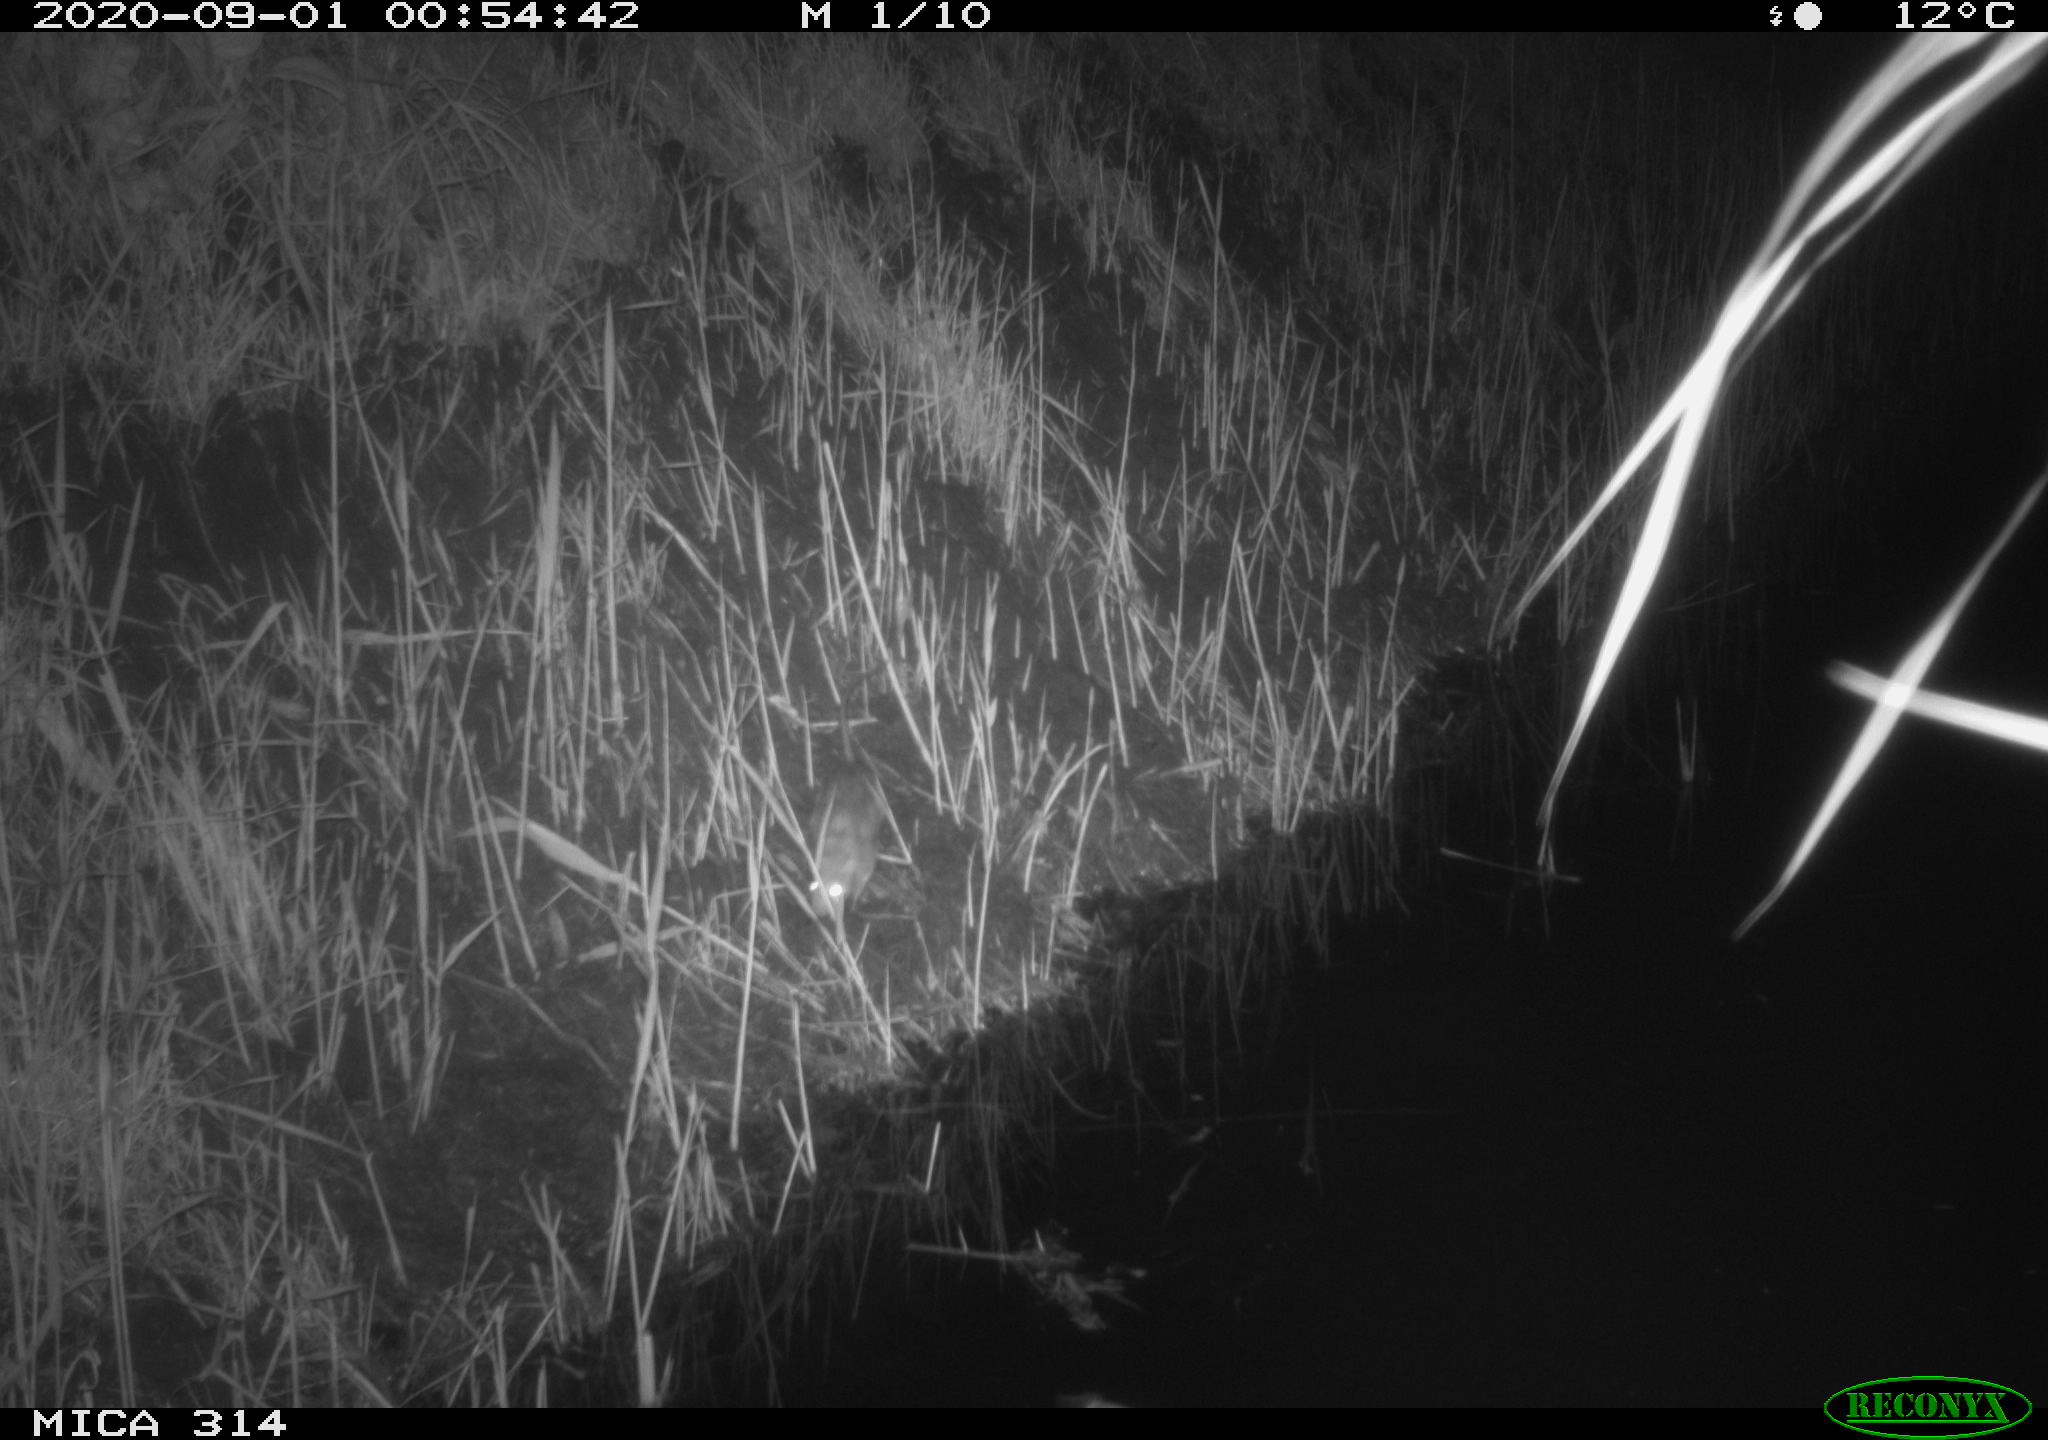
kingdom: Animalia
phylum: Chordata
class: Mammalia
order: Rodentia
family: Muridae
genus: Rattus
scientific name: Rattus norvegicus
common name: Brown rat
